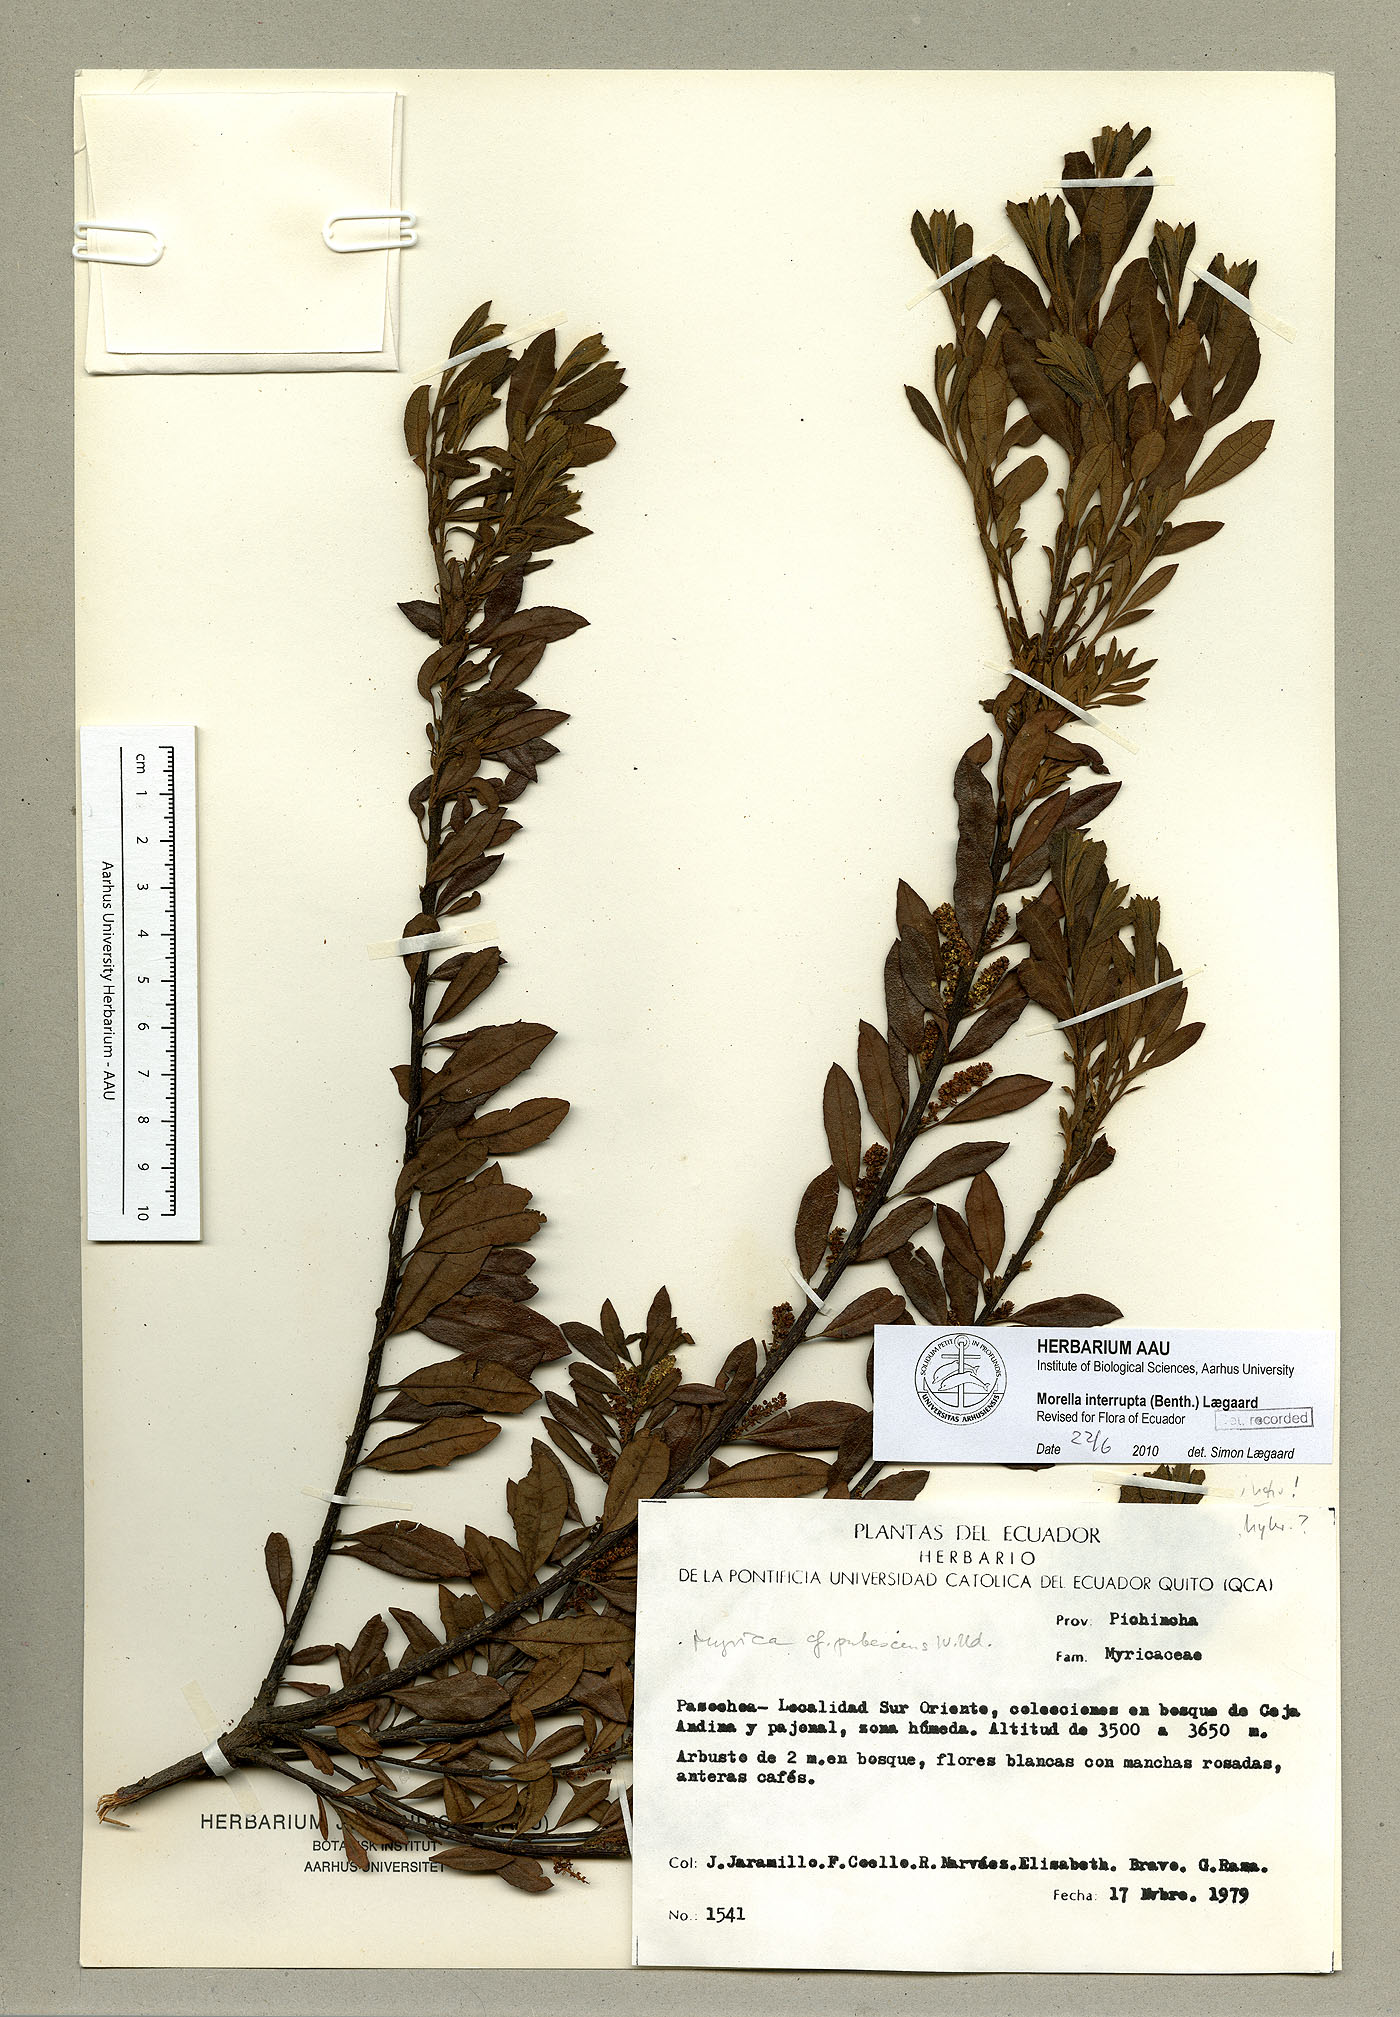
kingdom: Plantae
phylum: Tracheophyta
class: Magnoliopsida
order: Fagales
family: Myricaceae
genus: Morella
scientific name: Morella interrupta
